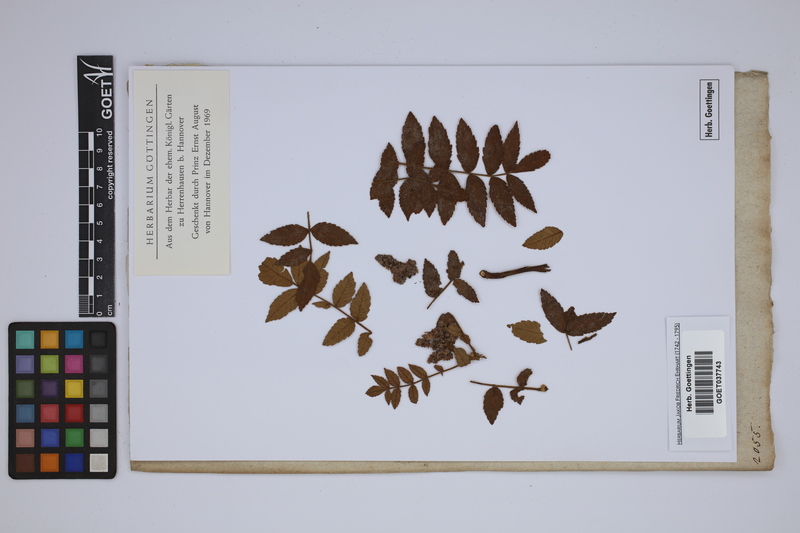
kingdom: Plantae
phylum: Tracheophyta
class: Magnoliopsida
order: Sapindales
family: Anacardiaceae
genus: Rhus
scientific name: Rhus coriaria
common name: Tanner's sumach
